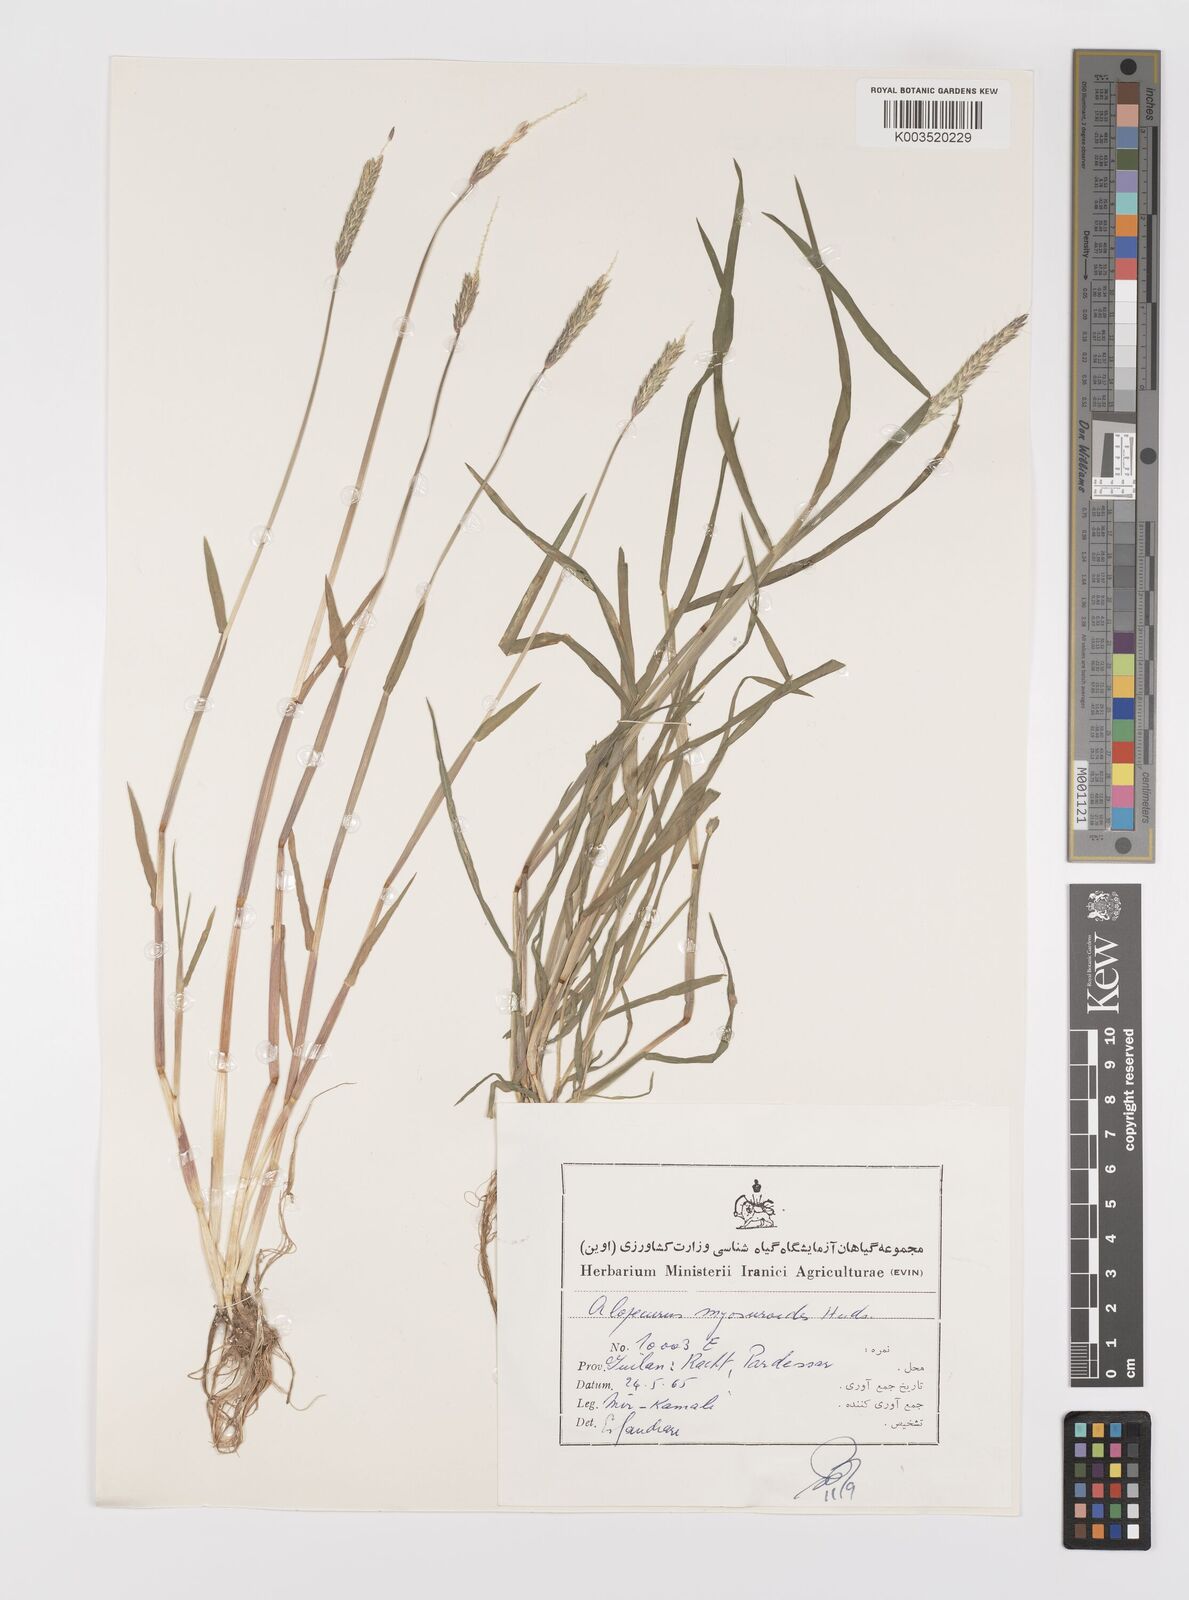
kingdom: Plantae
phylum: Tracheophyta
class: Liliopsida
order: Poales
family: Poaceae
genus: Alopecurus
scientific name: Alopecurus myosuroides
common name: Black-grass
